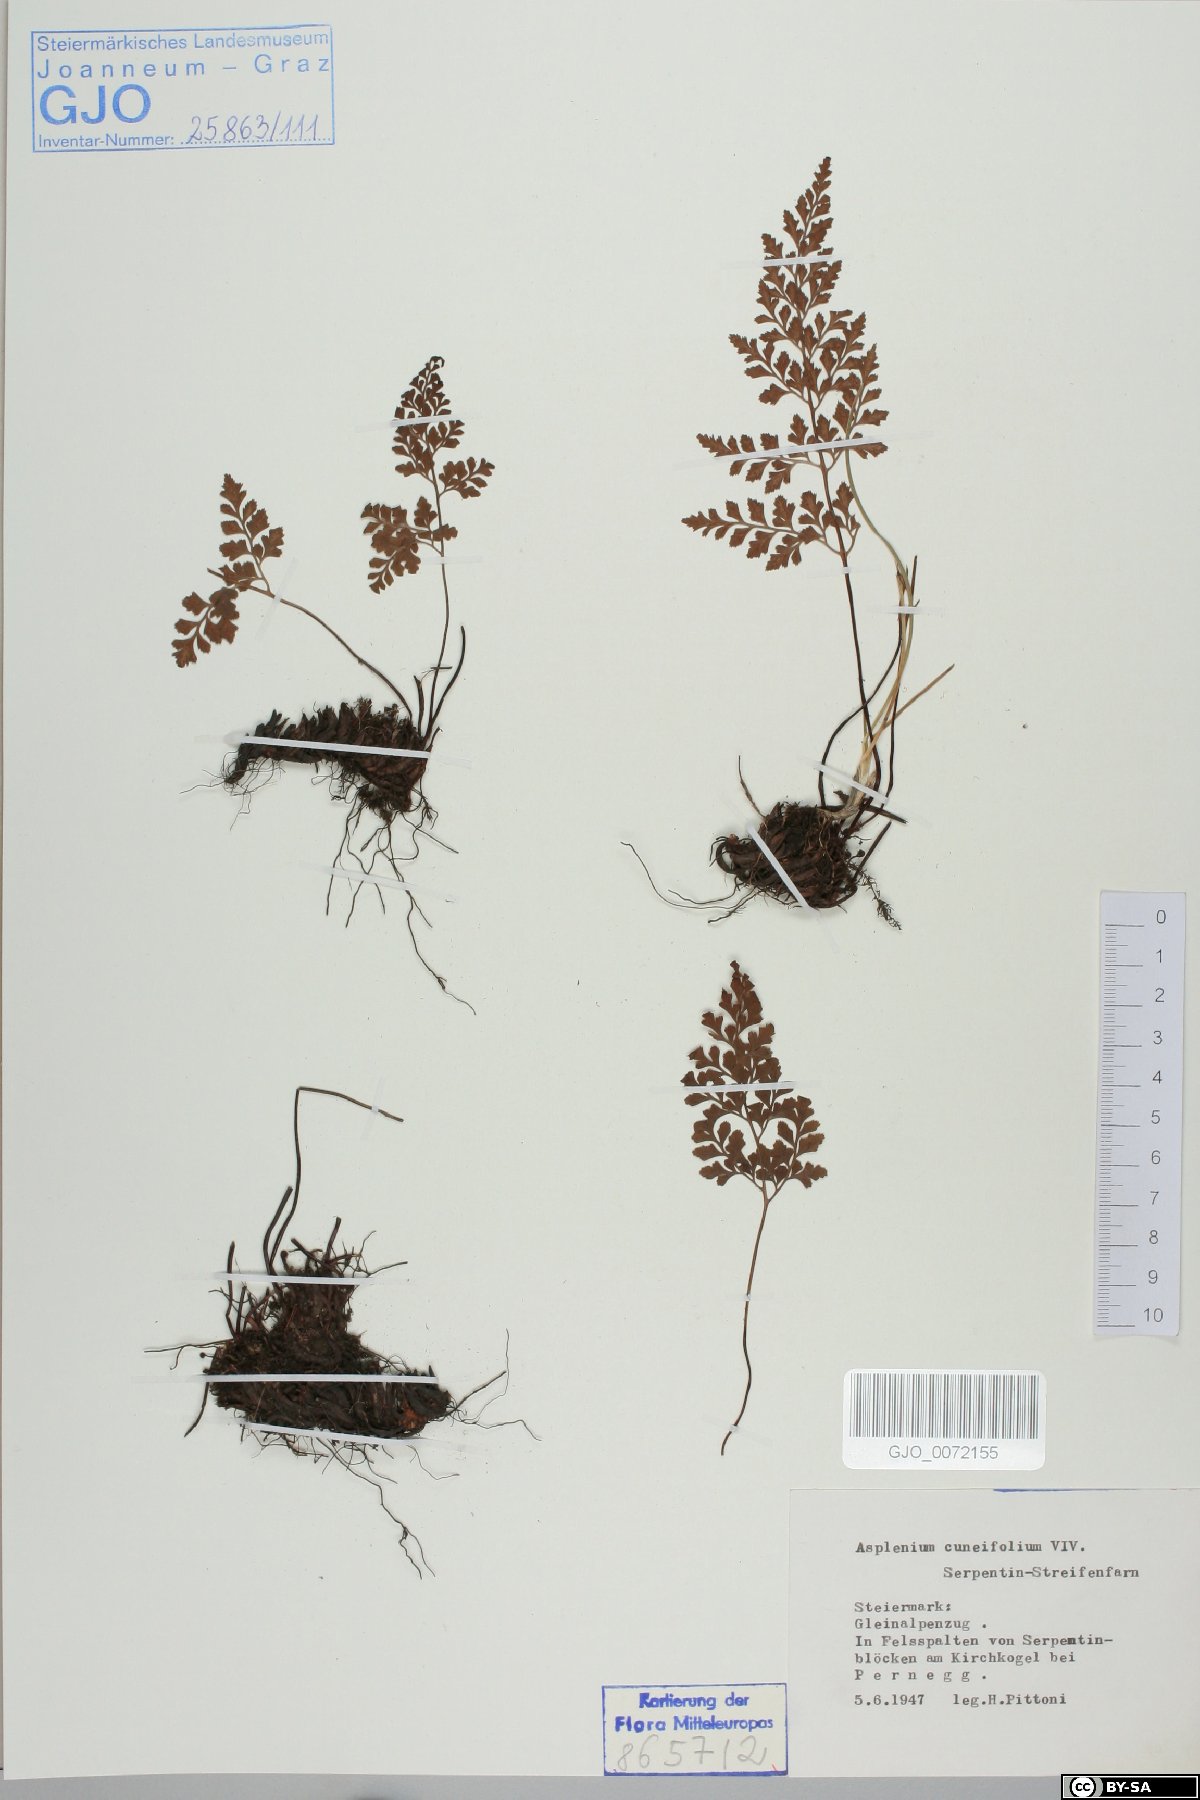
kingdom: Plantae
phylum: Tracheophyta
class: Polypodiopsida
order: Polypodiales
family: Aspleniaceae
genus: Asplenium
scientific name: Asplenium cuneifolium
